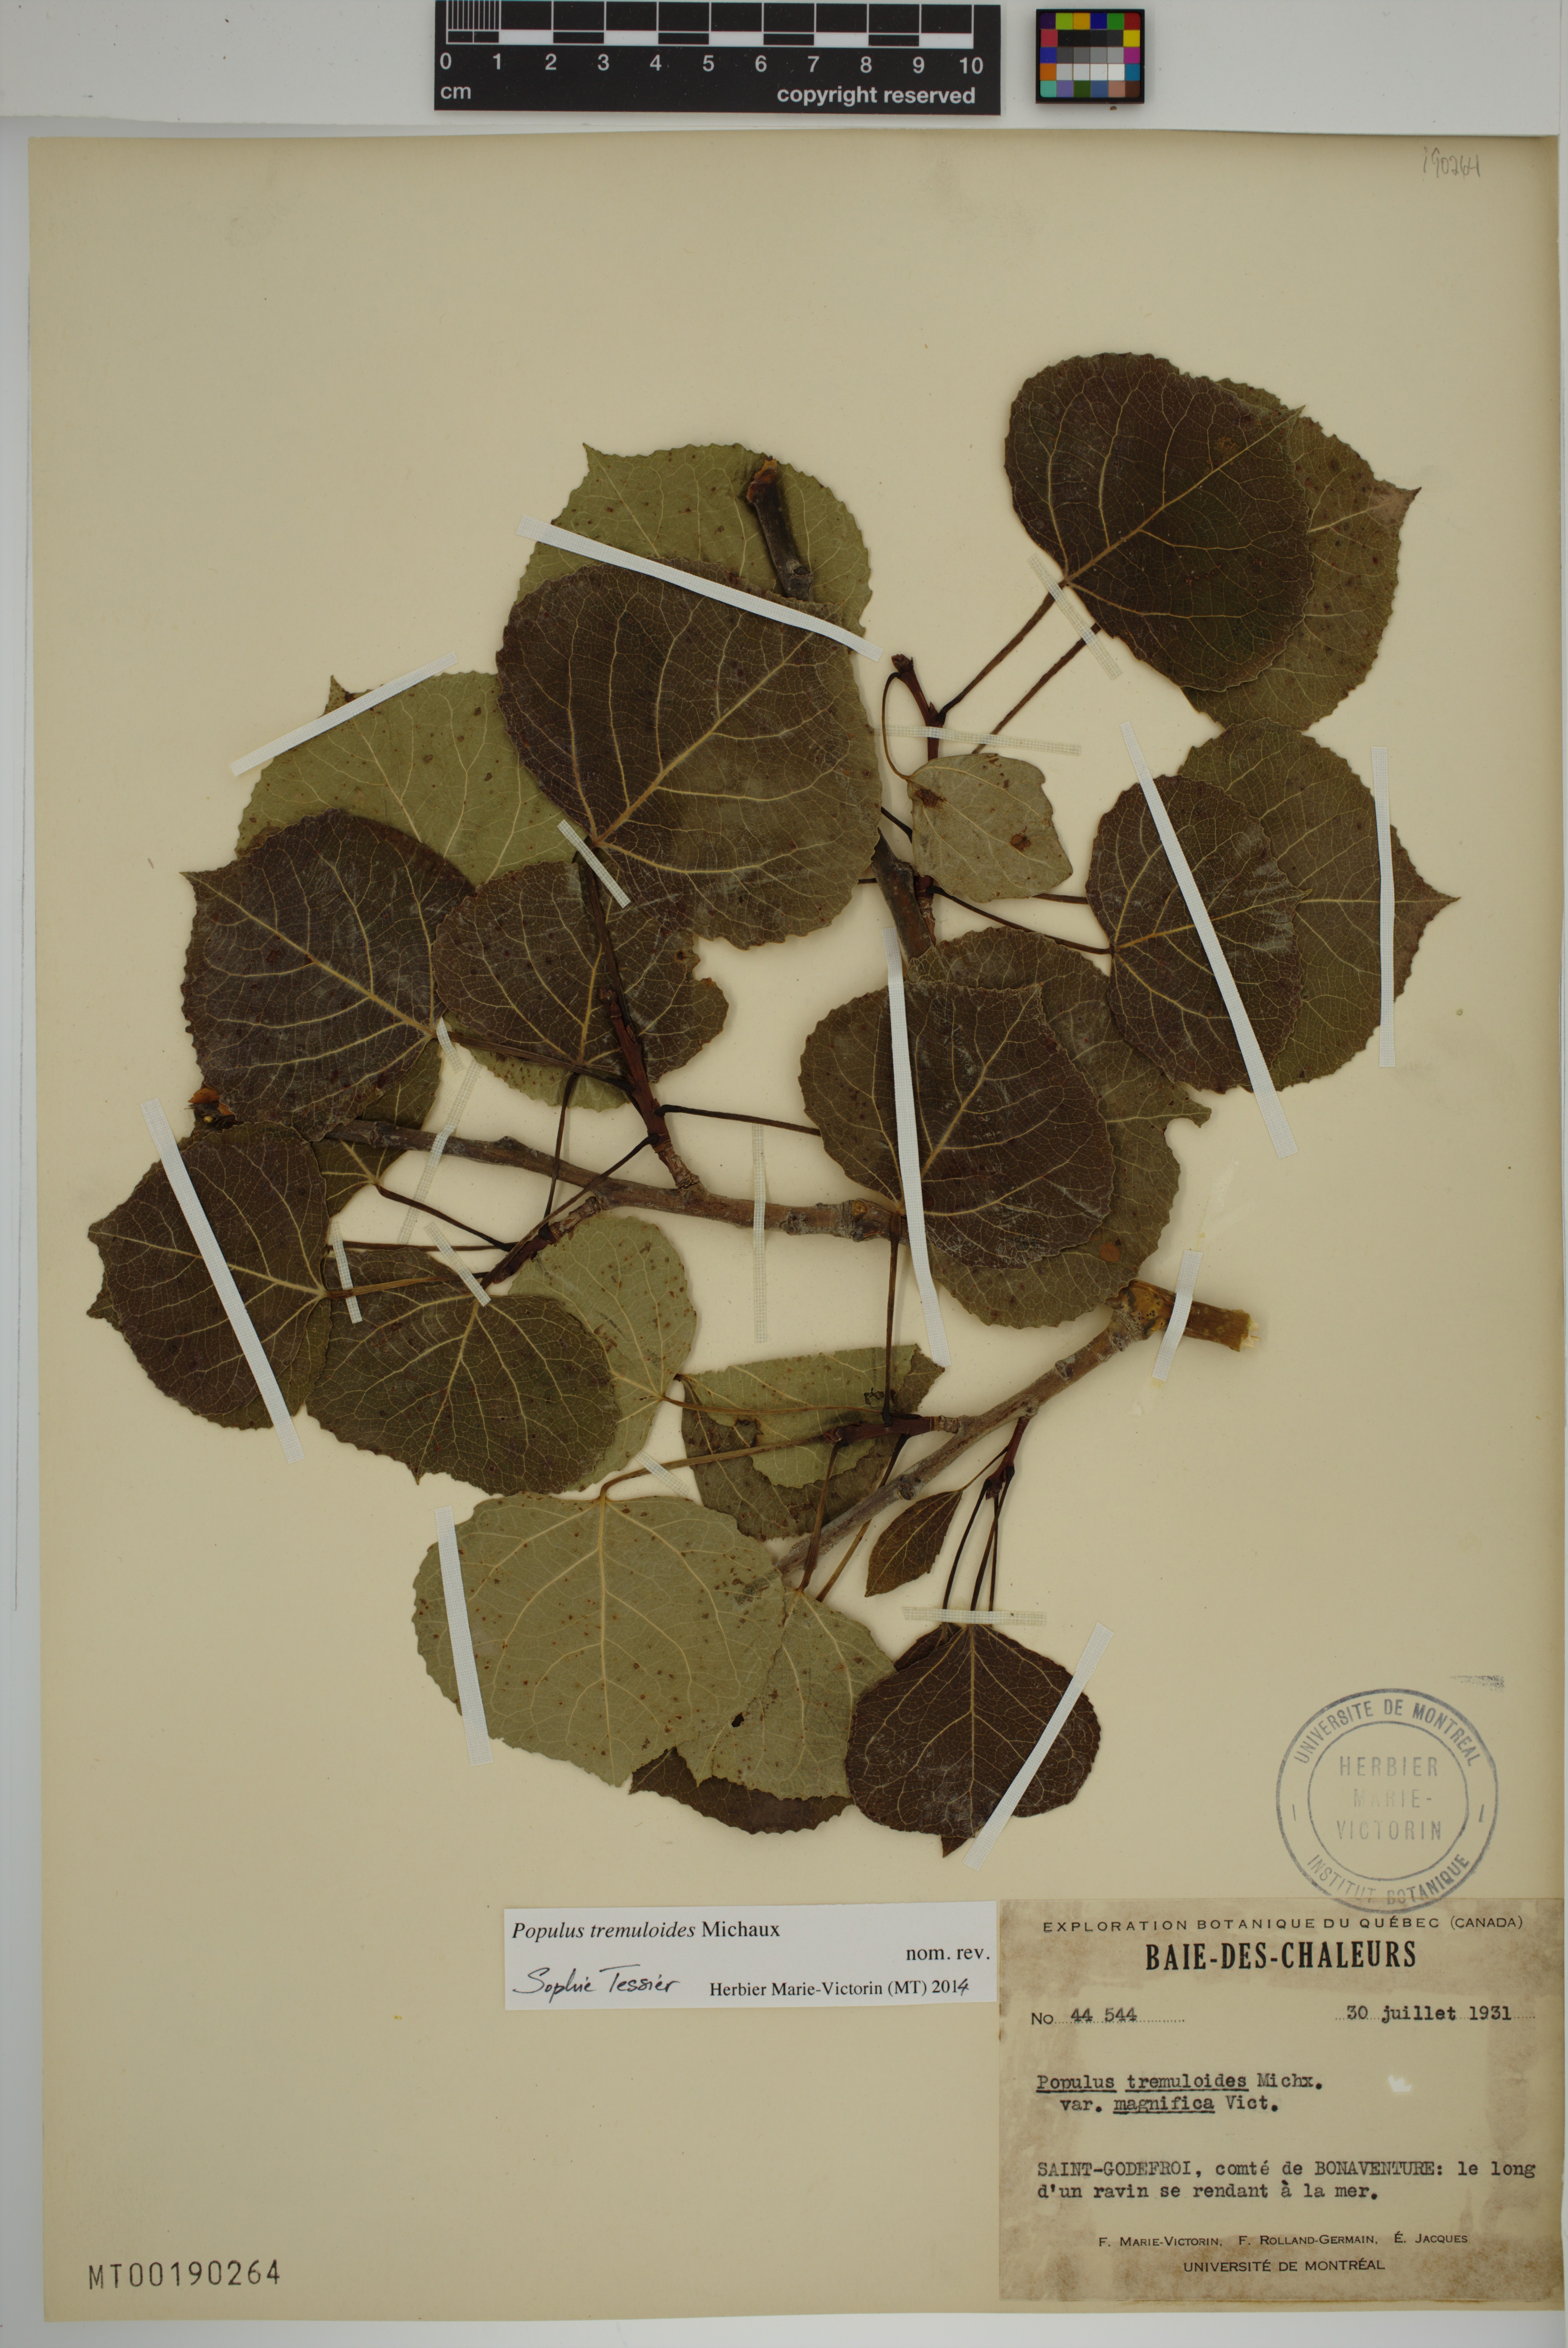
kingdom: Plantae
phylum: Tracheophyta
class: Magnoliopsida
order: Malpighiales
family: Salicaceae
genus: Populus
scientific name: Populus tremuloides
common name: Quaking aspen
